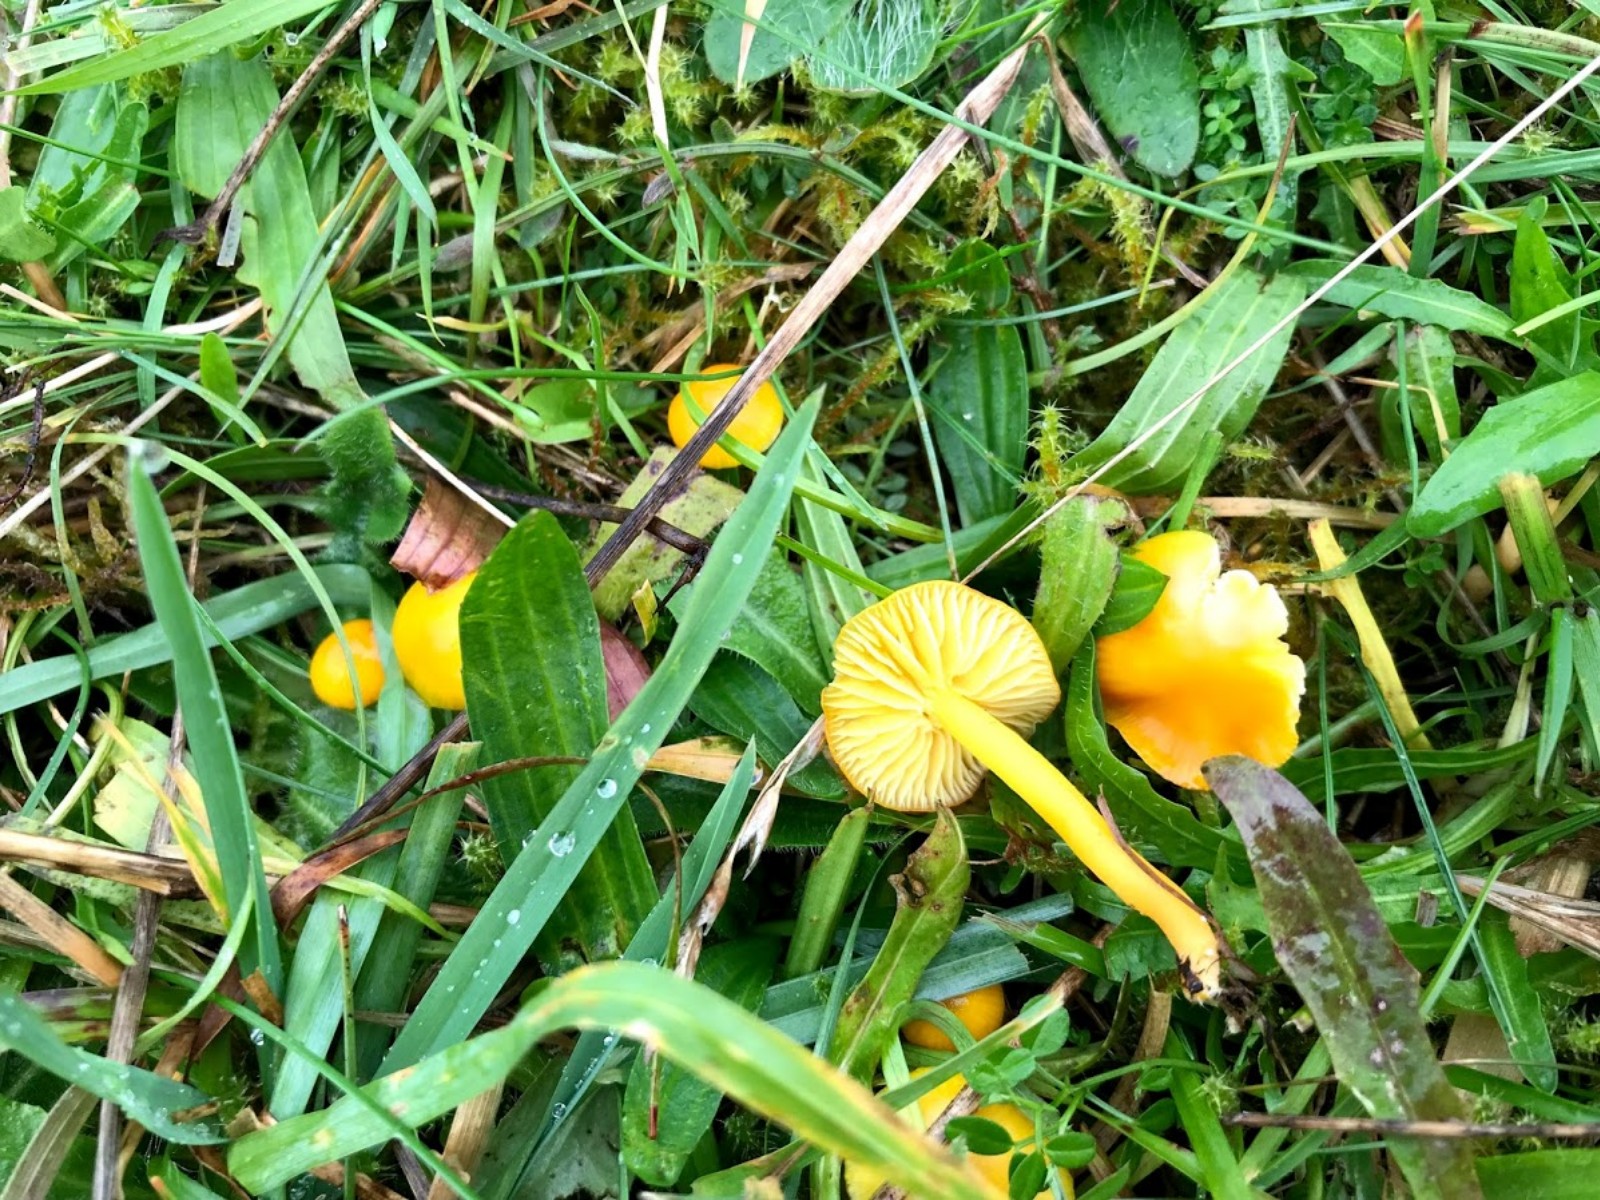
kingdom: Fungi
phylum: Basidiomycota
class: Agaricomycetes
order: Agaricales
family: Hygrophoraceae
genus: Hygrocybe
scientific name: Hygrocybe ceracea
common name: voksgul vokshat
